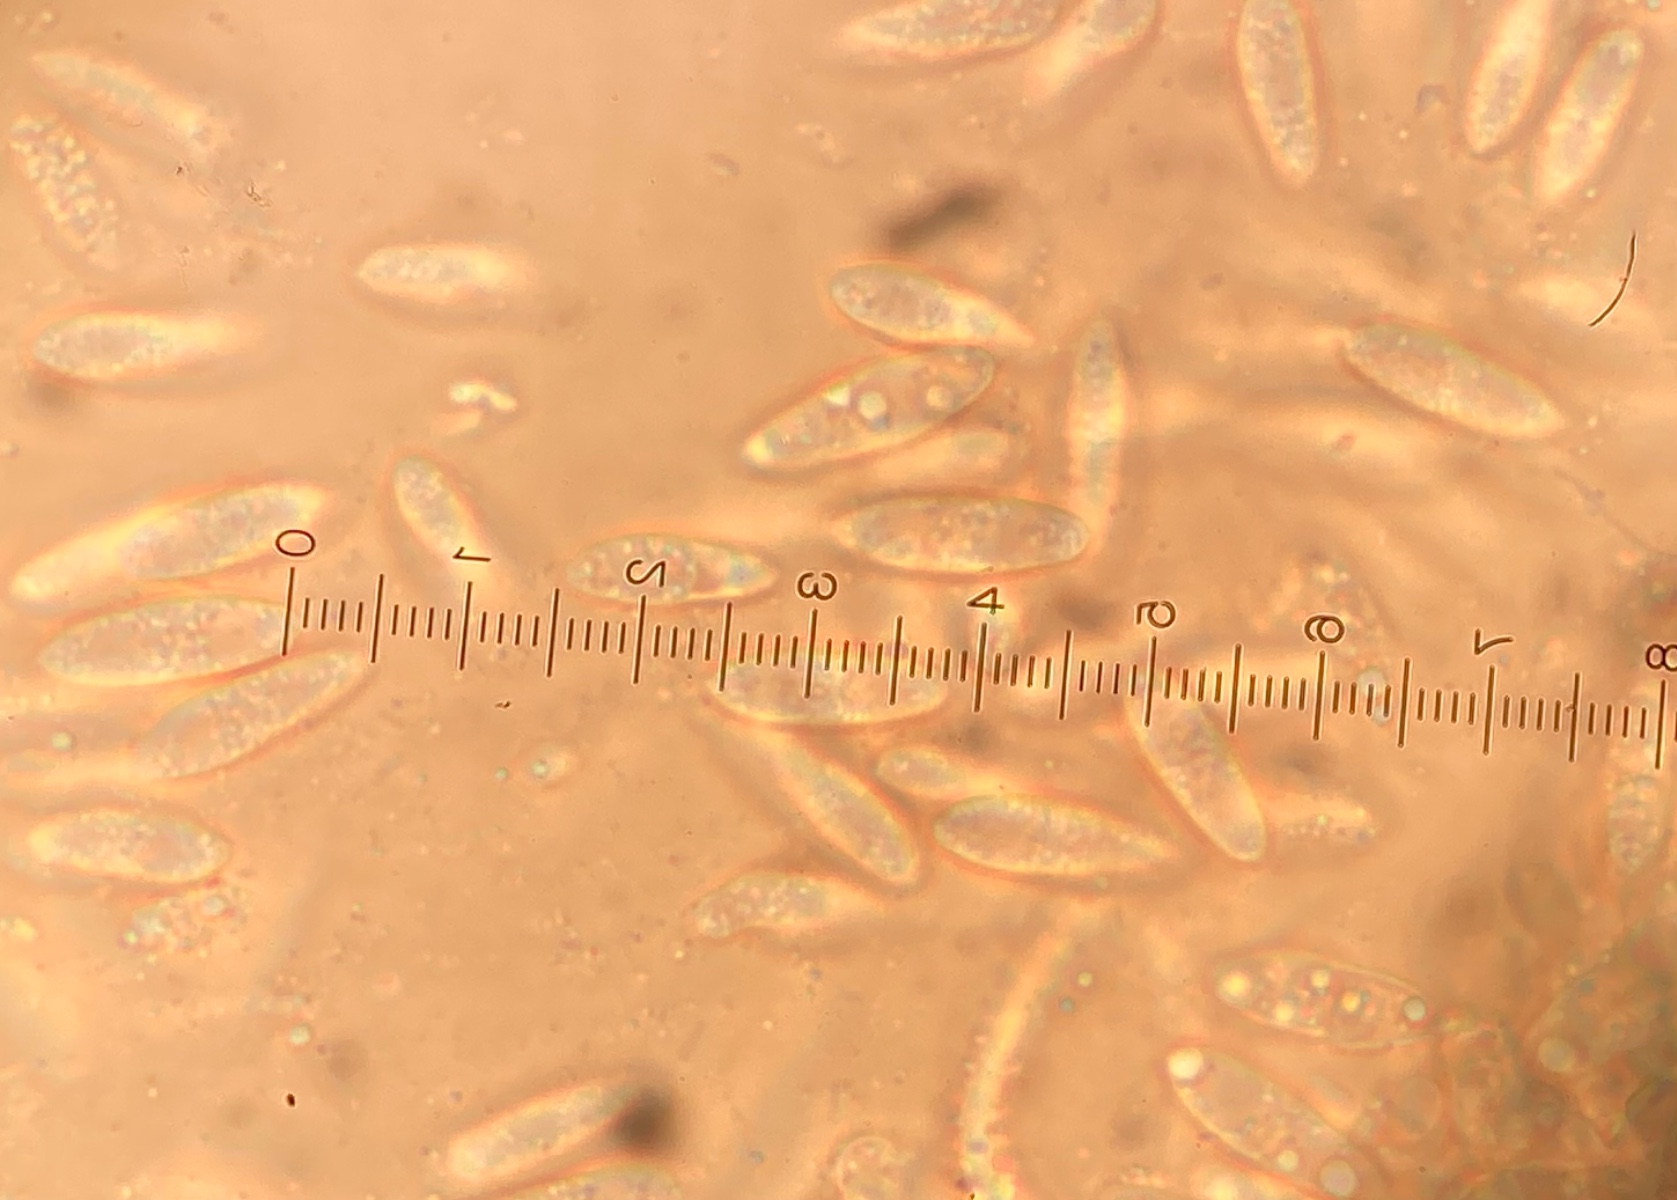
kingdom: Fungi
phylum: Ascomycota
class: Dothideomycetes
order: Pleosporales
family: Phaeosphaeriaceae
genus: Sphaerellopsis
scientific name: Sphaerellopsis filum
